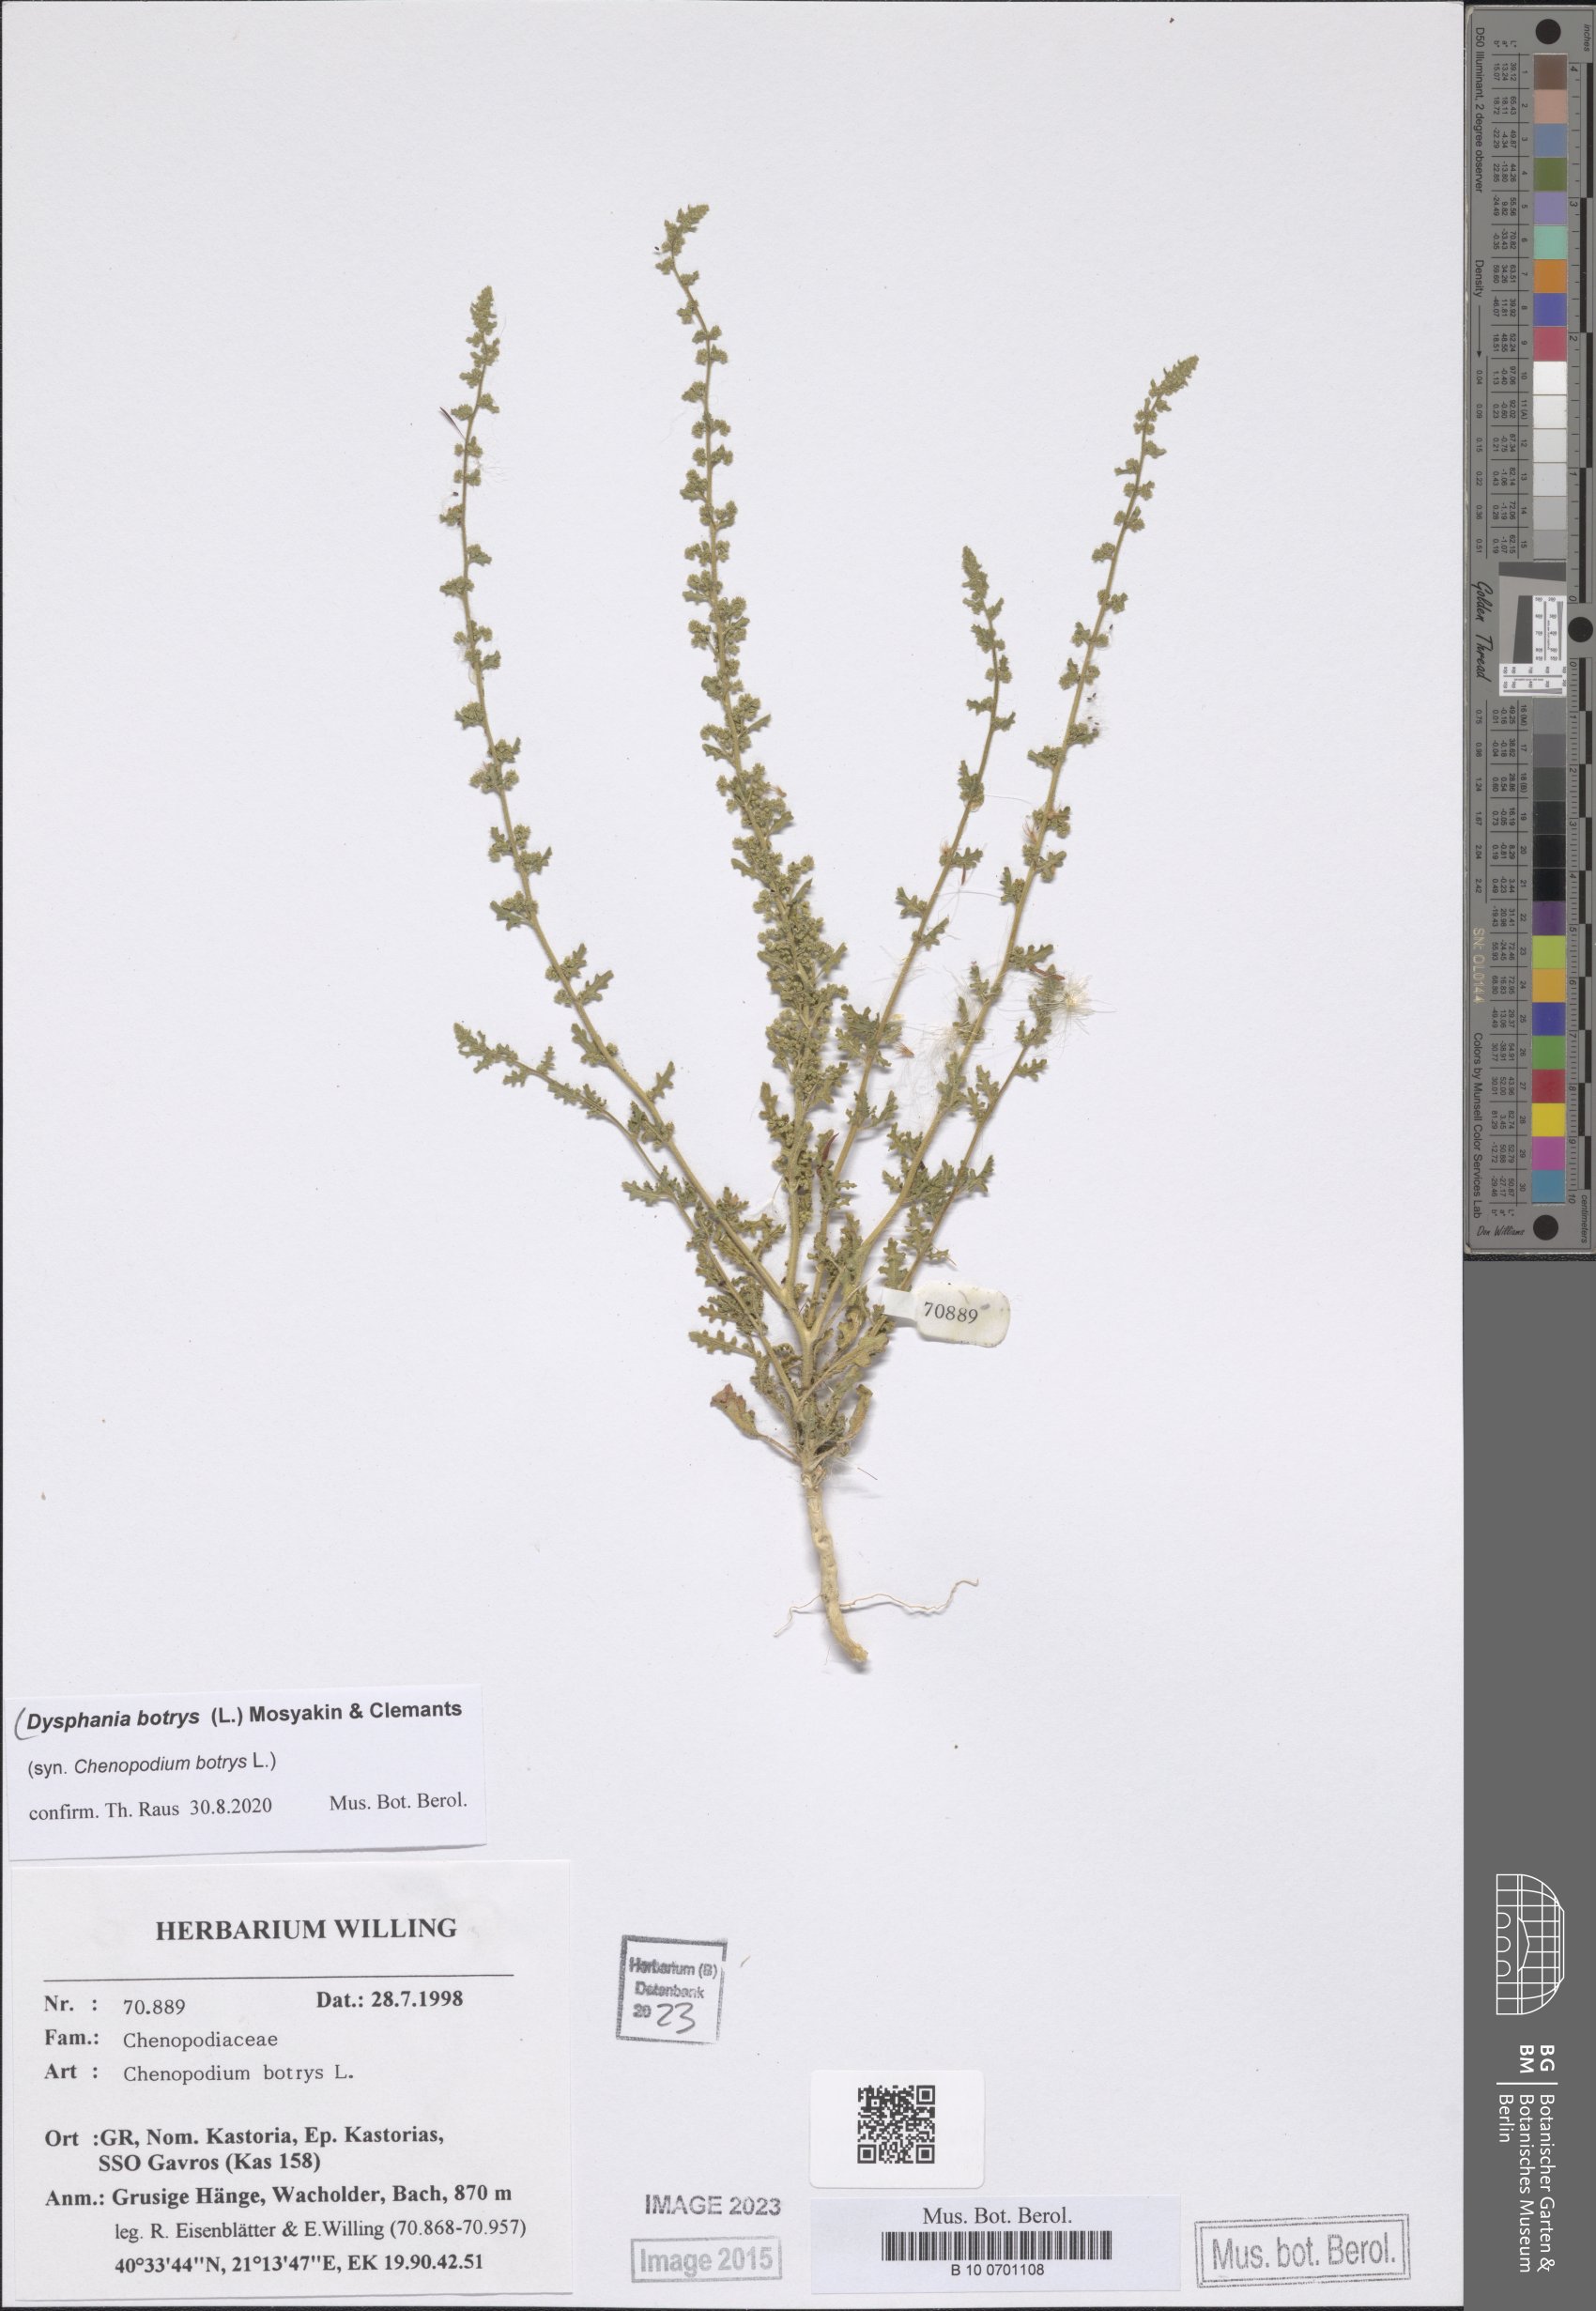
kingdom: Plantae
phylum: Tracheophyta
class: Magnoliopsida
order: Caryophyllales
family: Amaranthaceae
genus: Dysphania
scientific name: Dysphania botrys
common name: Feather-geranium
